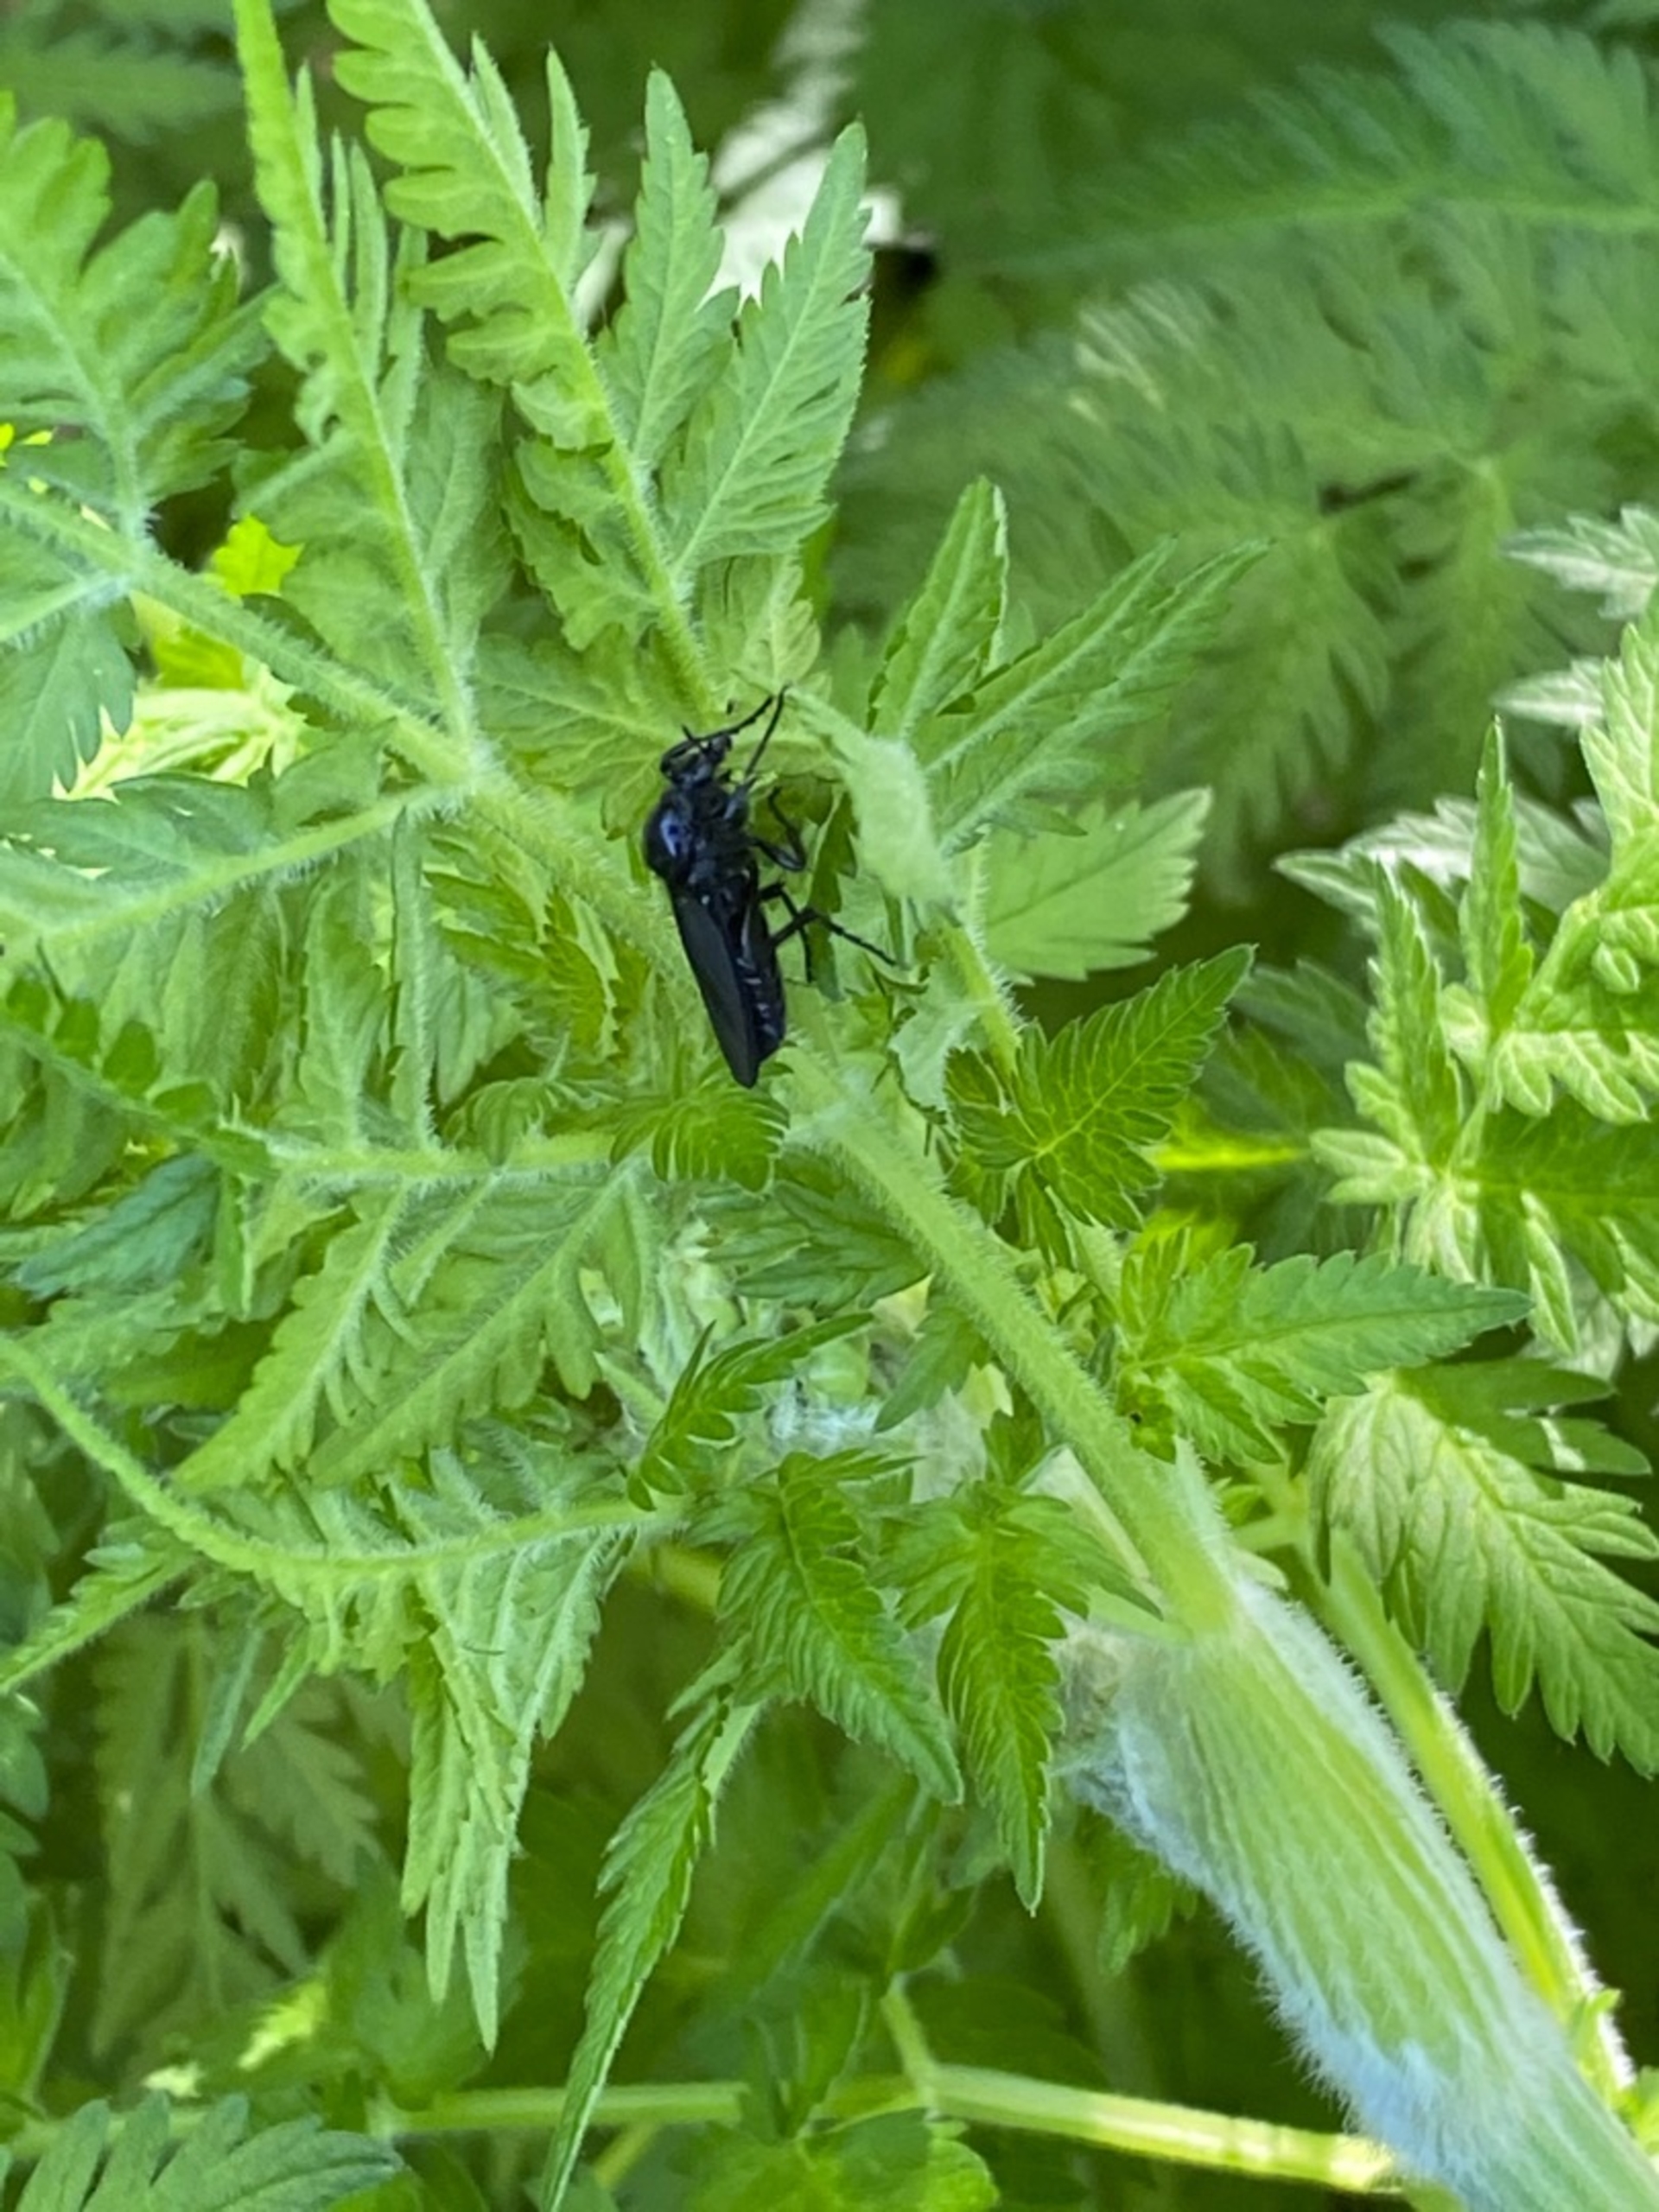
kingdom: Animalia
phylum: Arthropoda
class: Insecta
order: Diptera
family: Bibionidae
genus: Bibio
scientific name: Bibio marci
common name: Skovhårmyg
